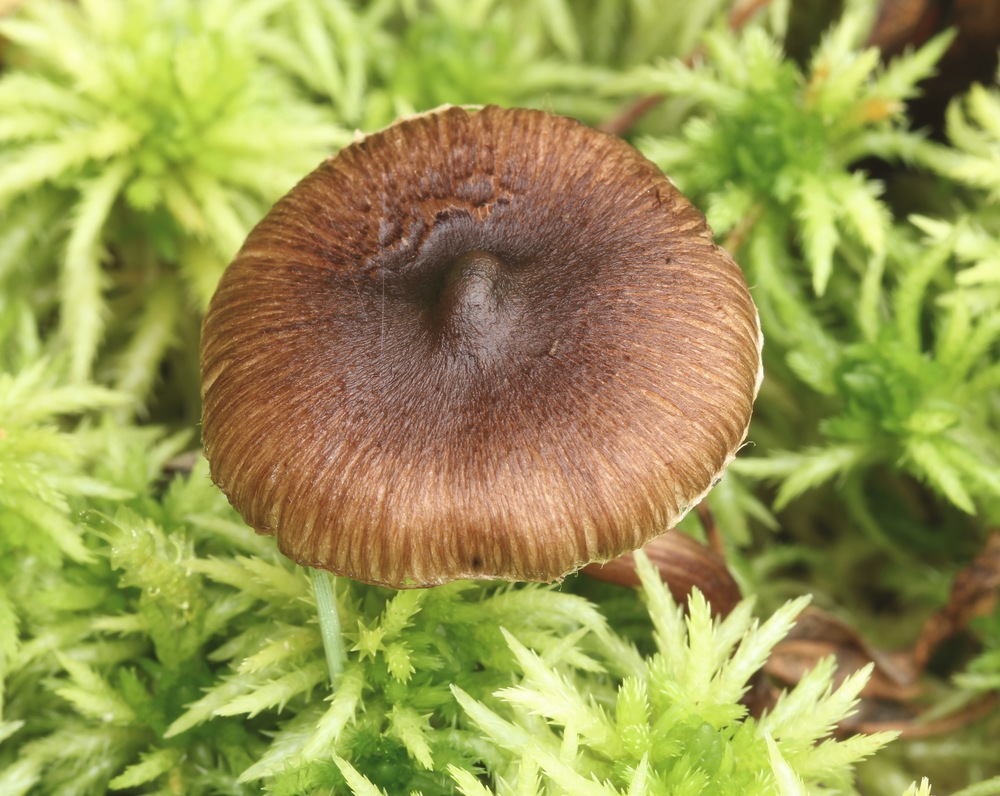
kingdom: Fungi
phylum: Basidiomycota
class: Agaricomycetes
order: Agaricales
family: Inocybaceae
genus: Inocybe
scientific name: Inocybe
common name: trævlhat
